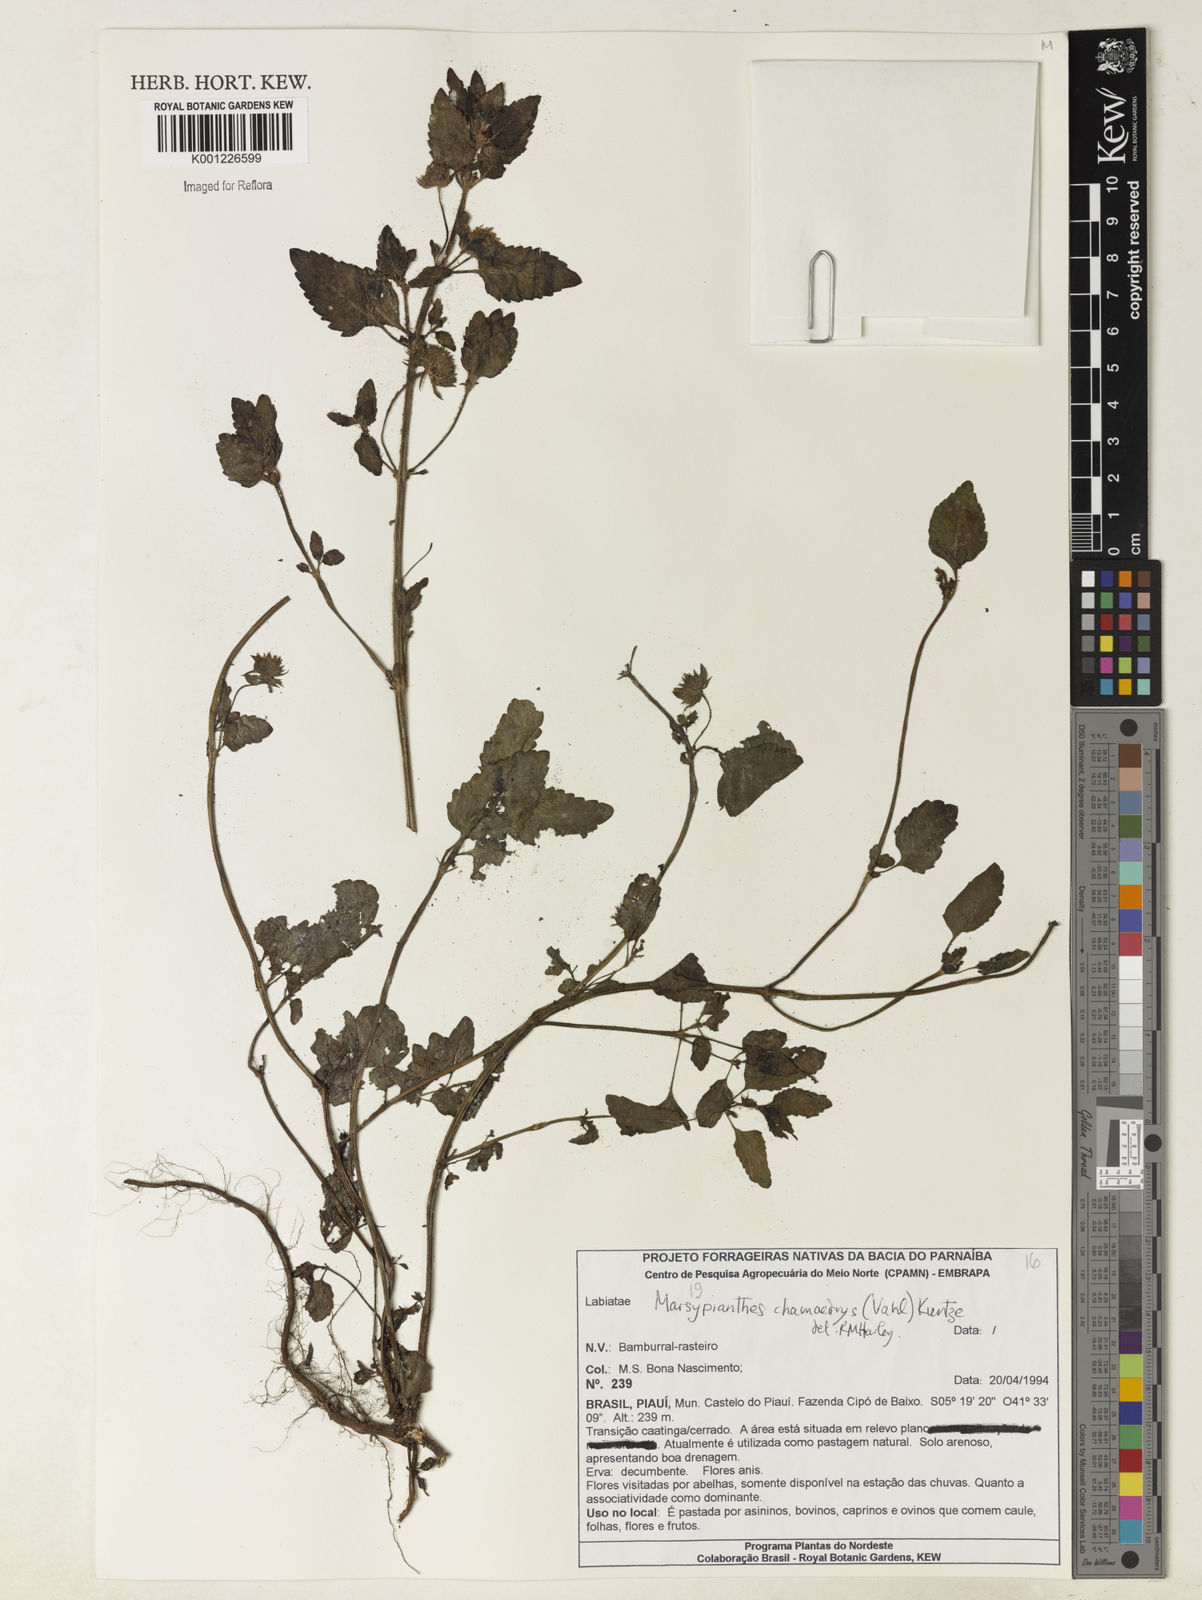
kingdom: Plantae
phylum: Tracheophyta
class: Magnoliopsida
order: Lamiales
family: Lamiaceae
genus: Marsypianthes
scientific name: Marsypianthes chamaedrys
